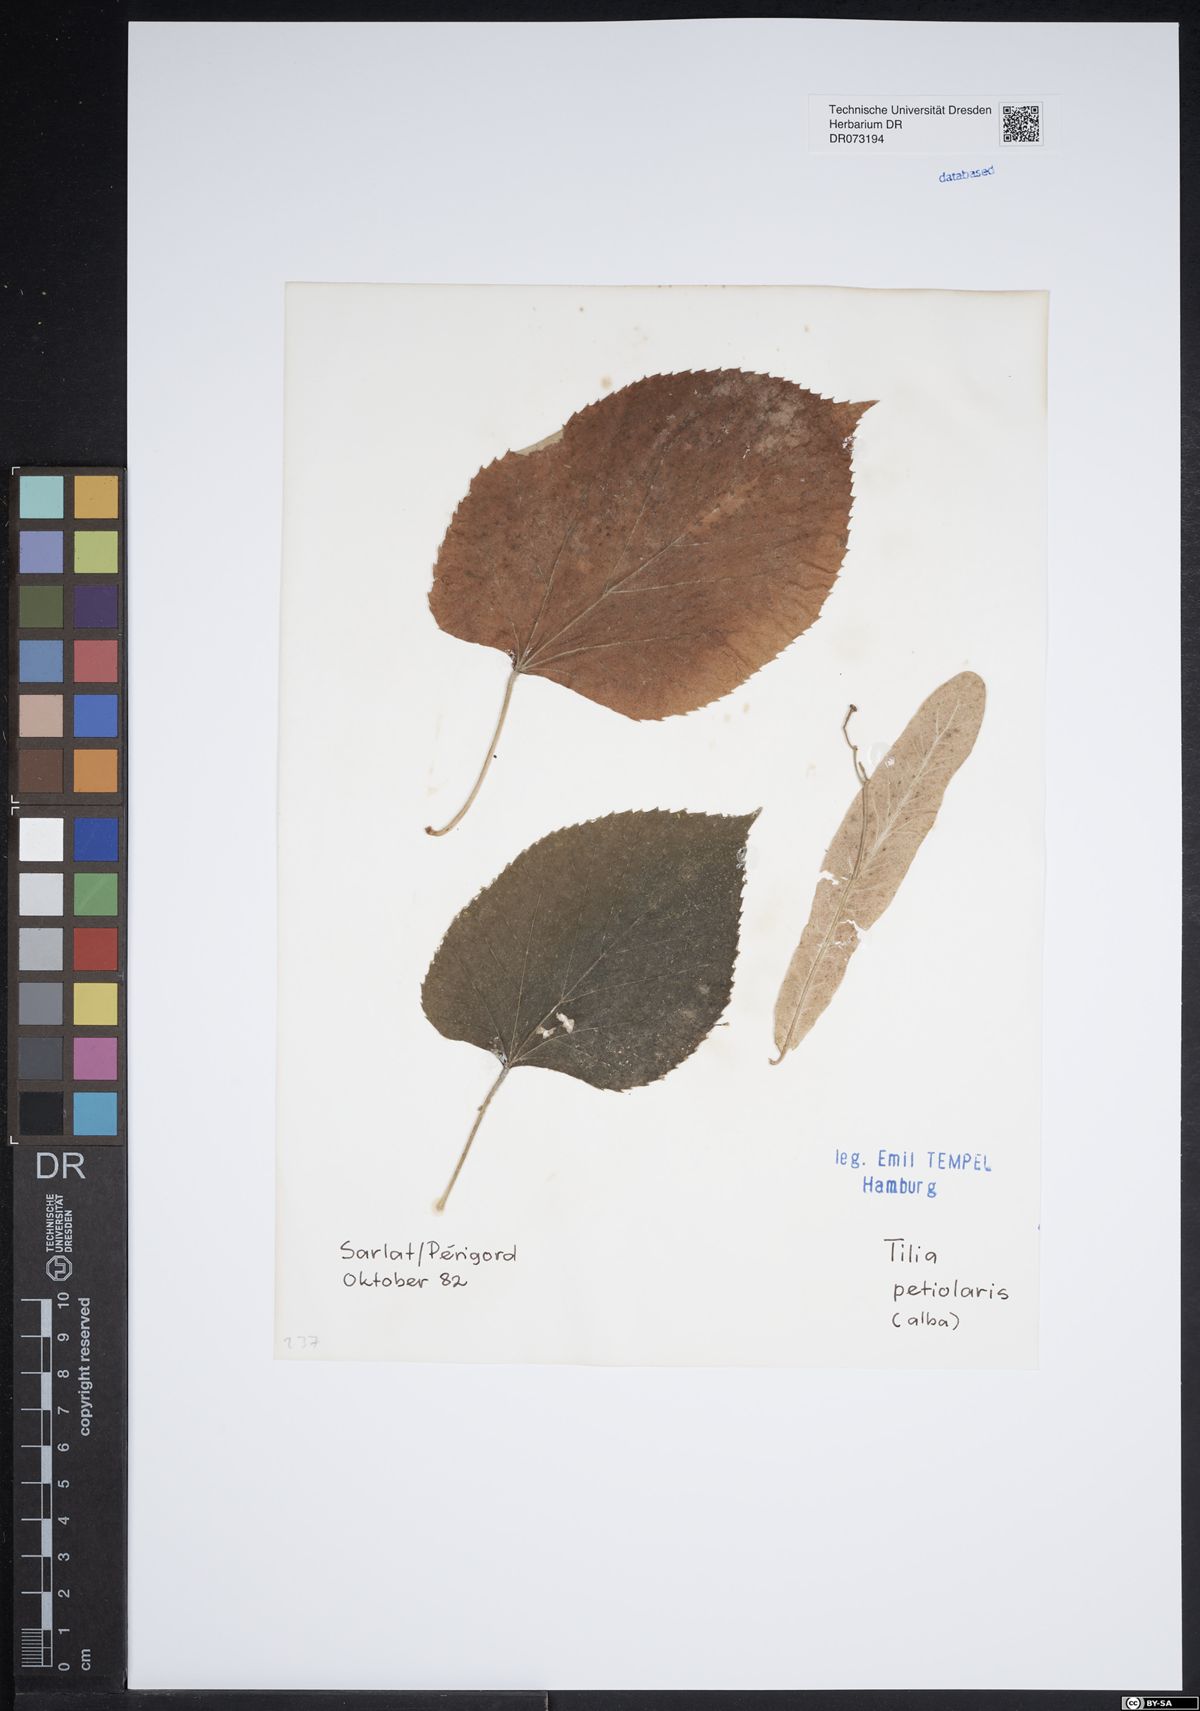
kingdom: Plantae
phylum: Tracheophyta
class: Magnoliopsida
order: Malvales
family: Malvaceae
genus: Tilia
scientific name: Tilia tomentosa
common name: Silver lime
